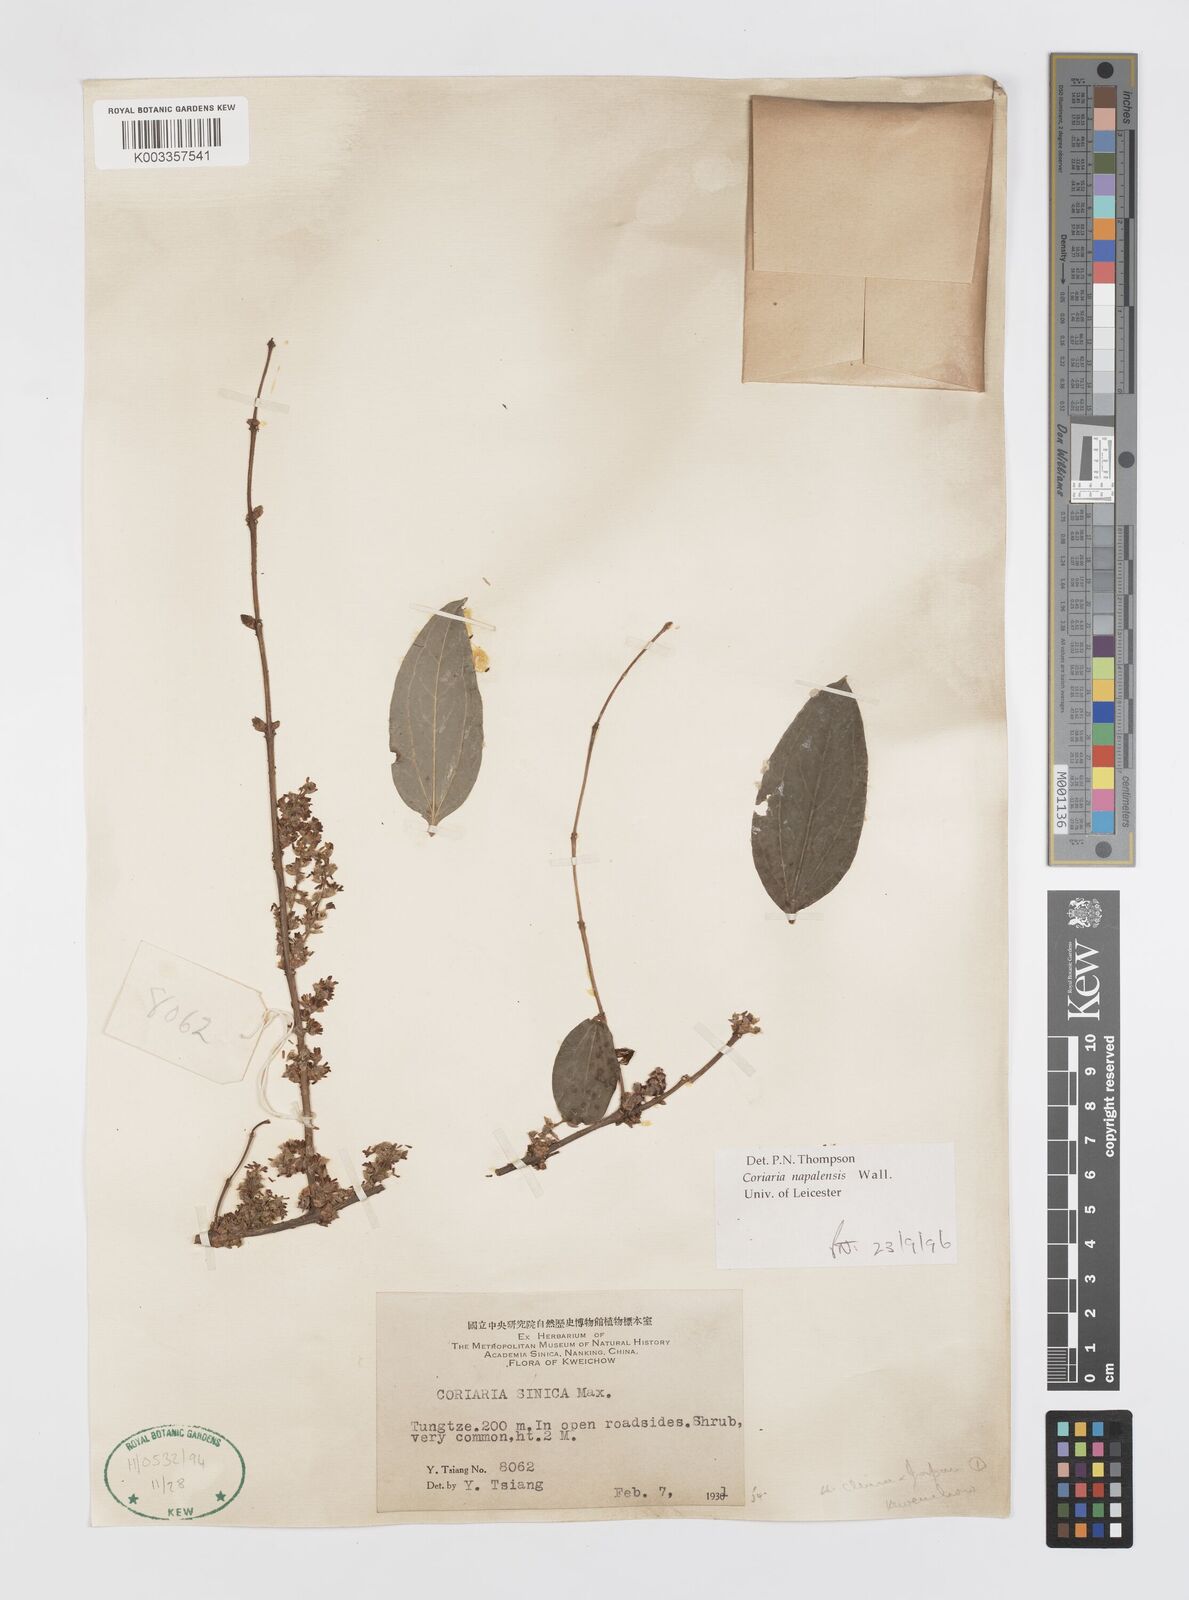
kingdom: Plantae
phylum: Tracheophyta
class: Magnoliopsida
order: Cucurbitales
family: Coriariaceae
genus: Coriaria
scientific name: Coriaria napalensis
